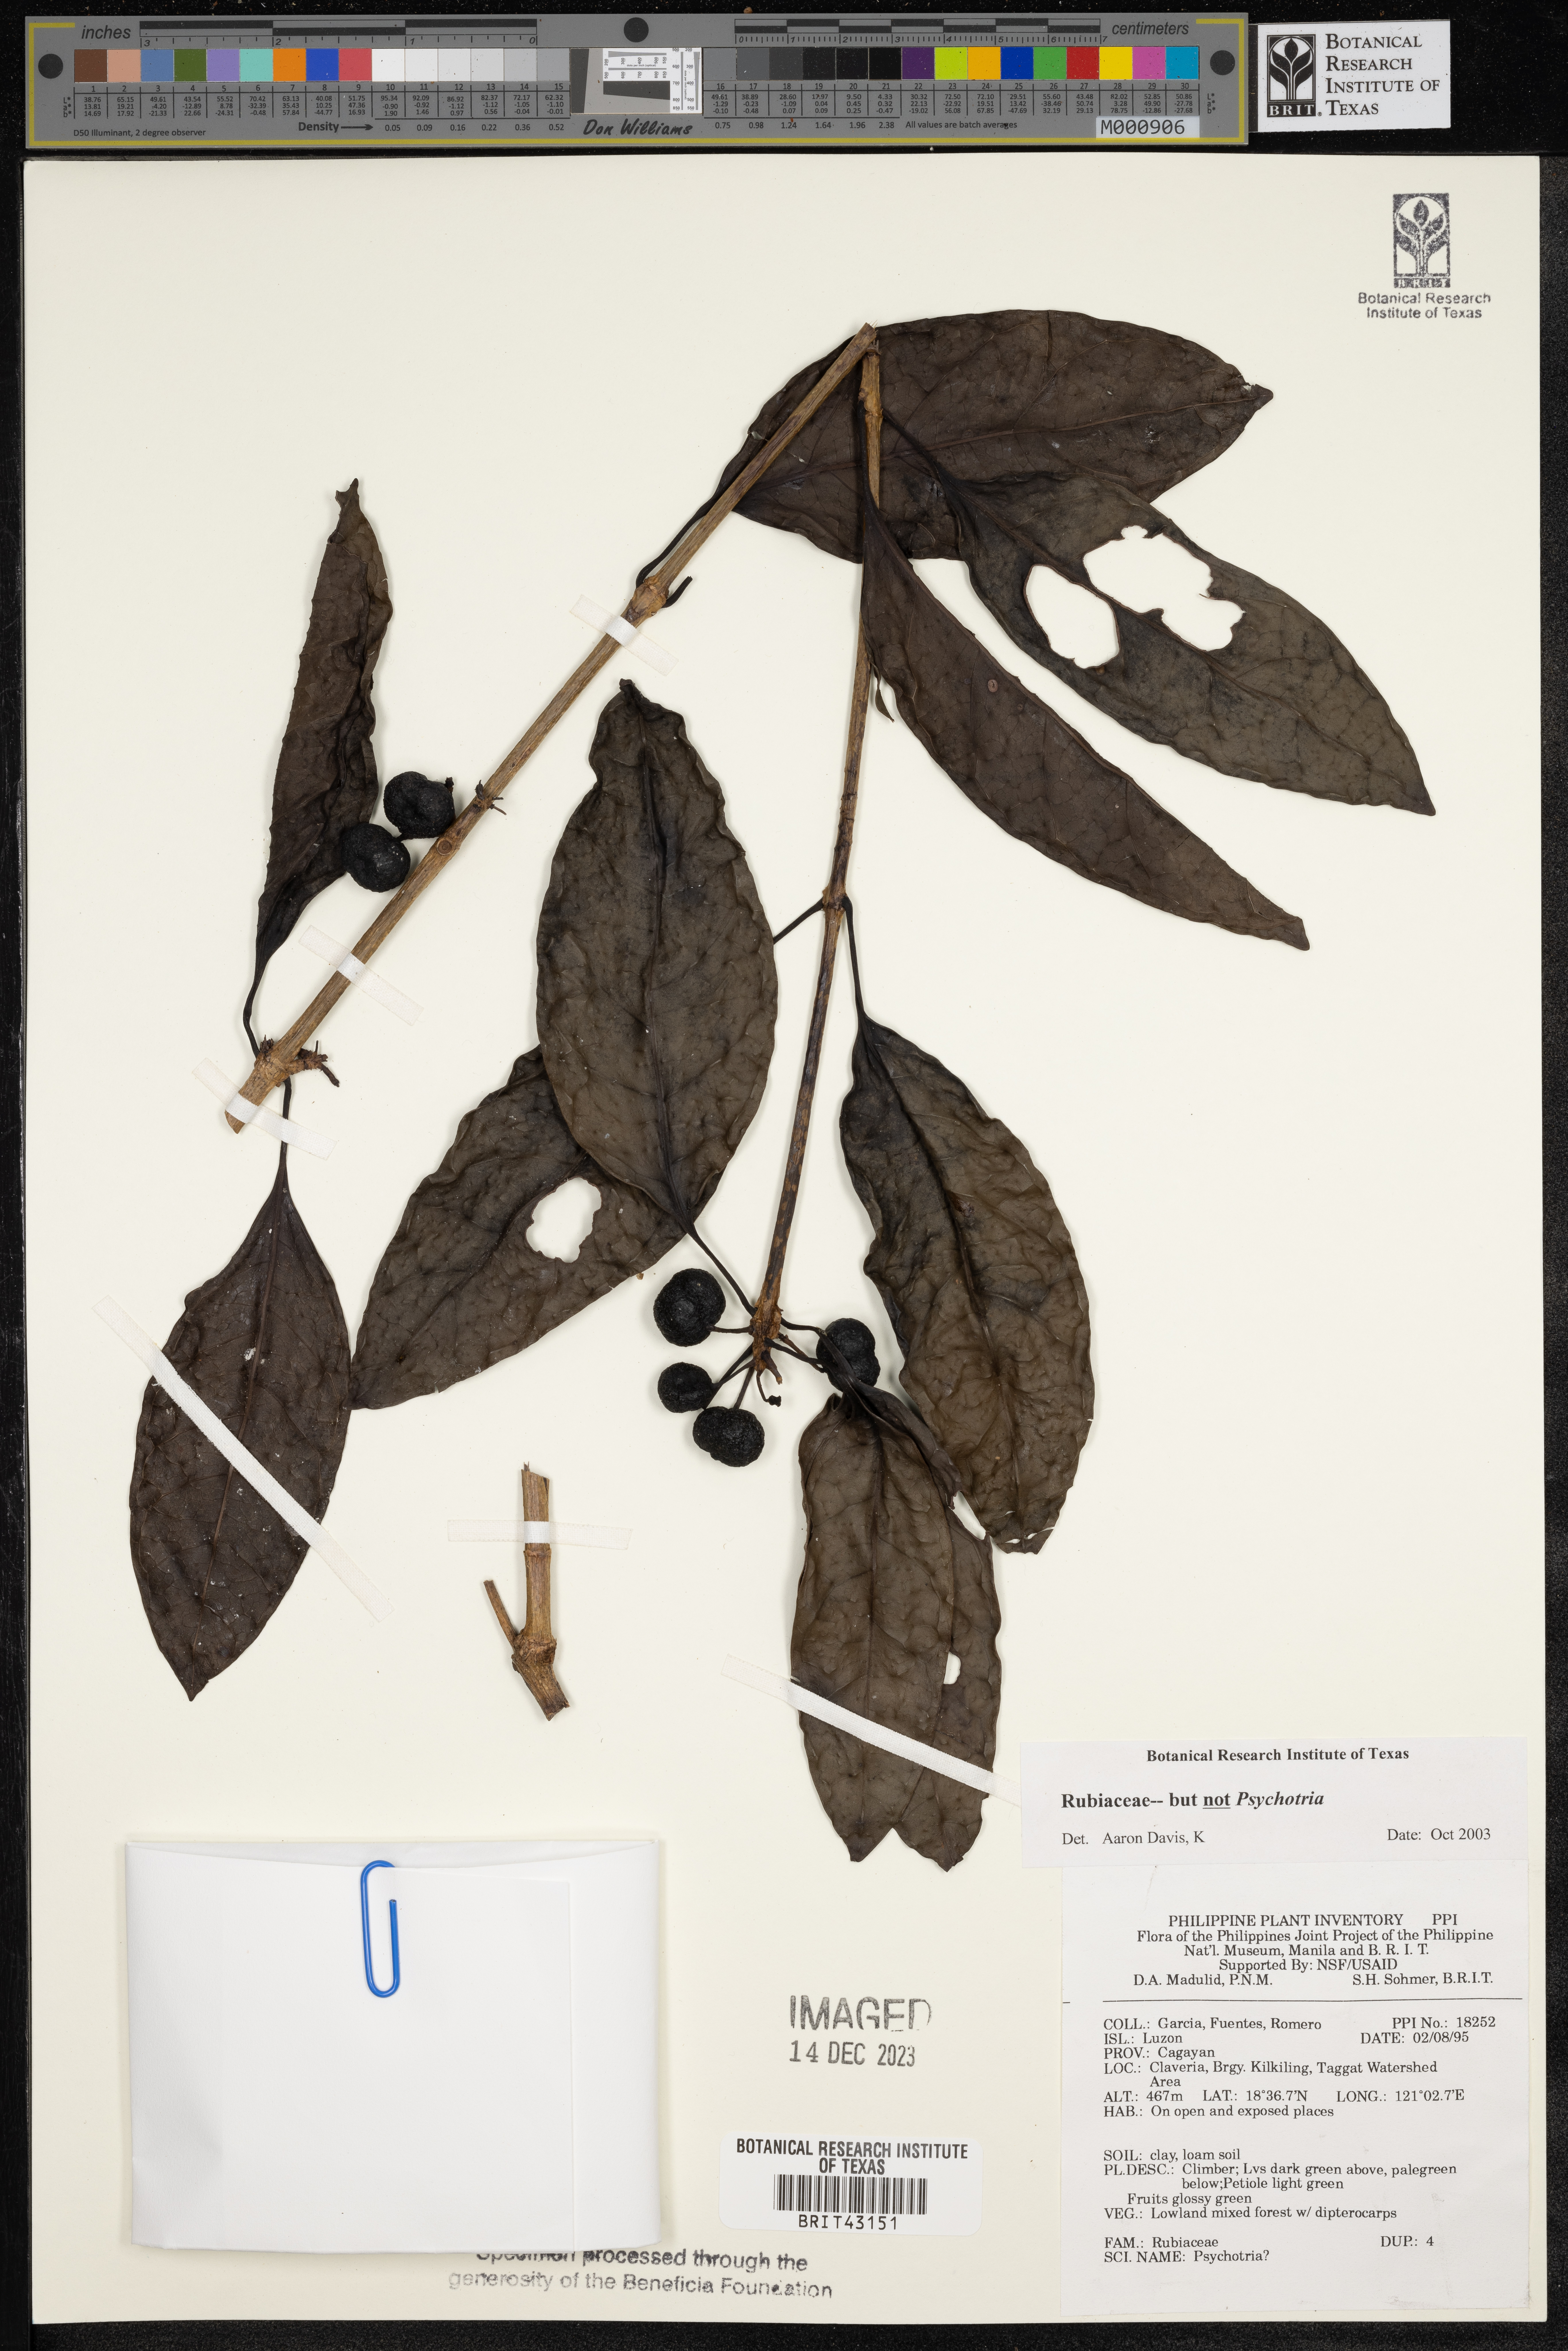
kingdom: Plantae
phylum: Tracheophyta
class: Magnoliopsida
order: Gentianales
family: Rubiaceae
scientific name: Rubiaceae
